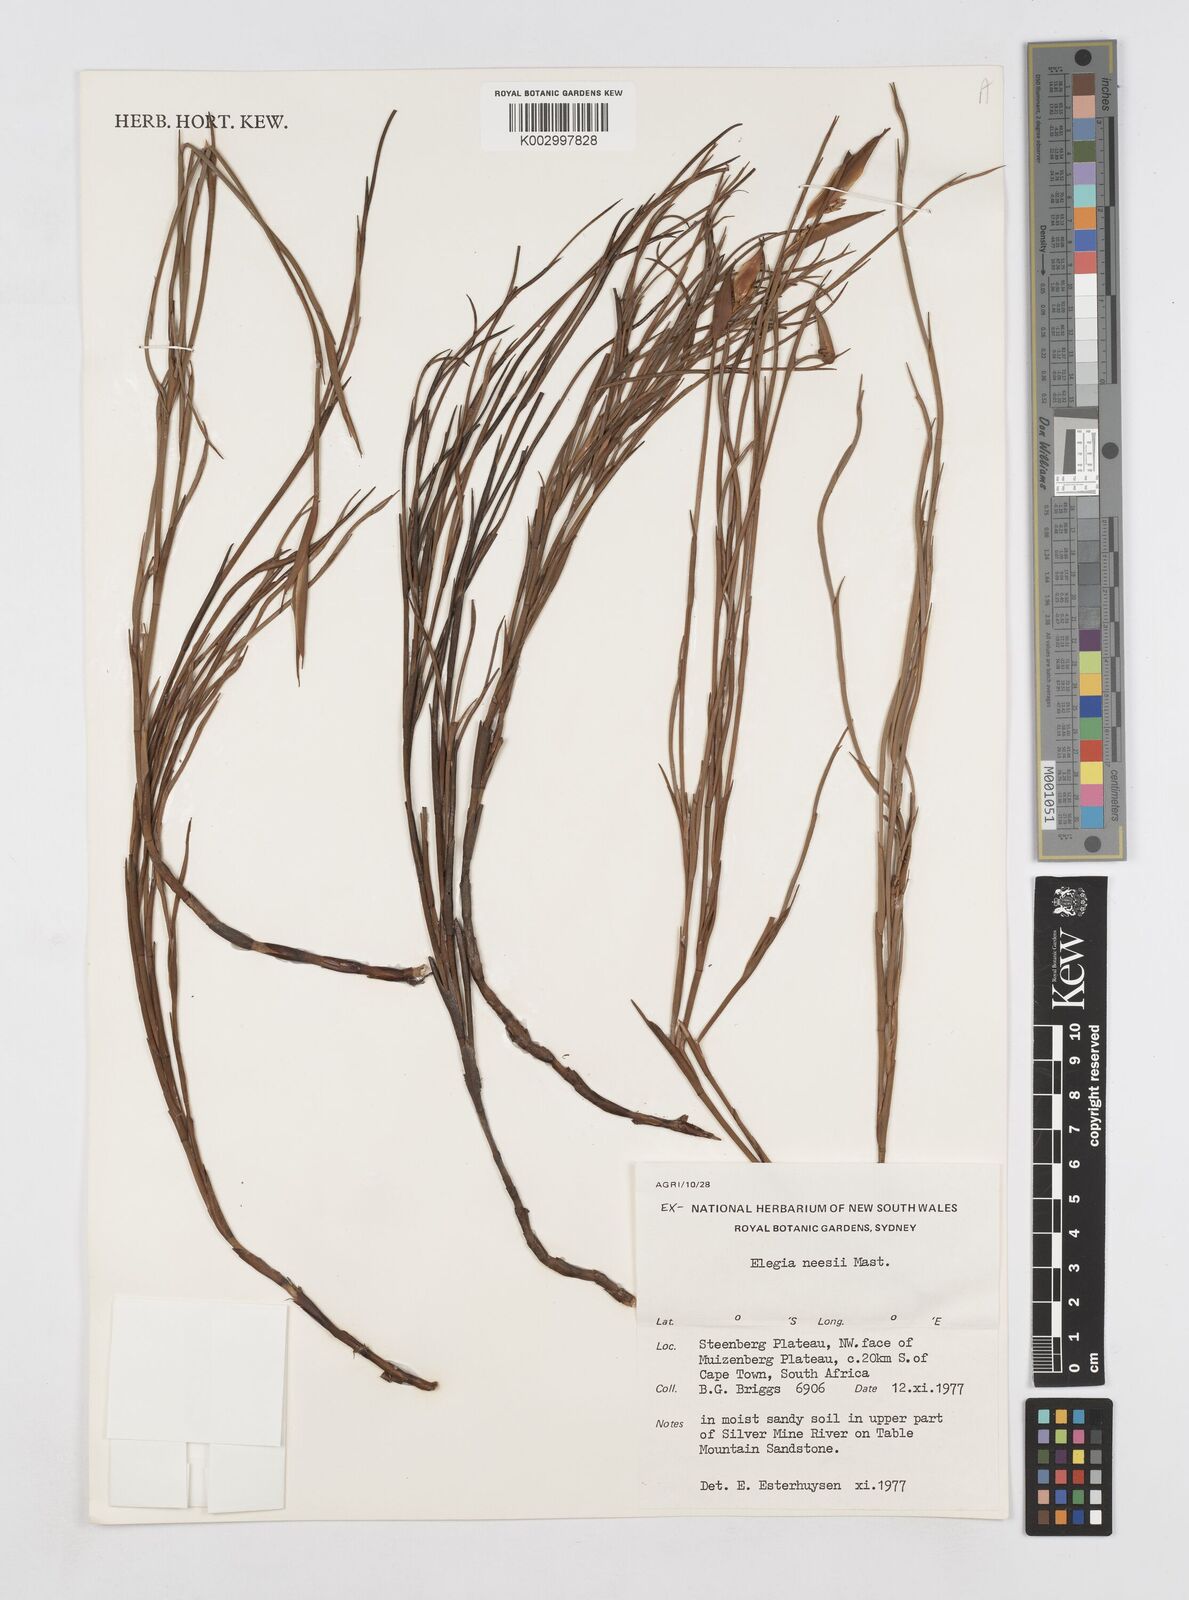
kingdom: Plantae
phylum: Tracheophyta
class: Liliopsida
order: Poales
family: Restionaceae
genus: Elegia
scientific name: Elegia neesii
